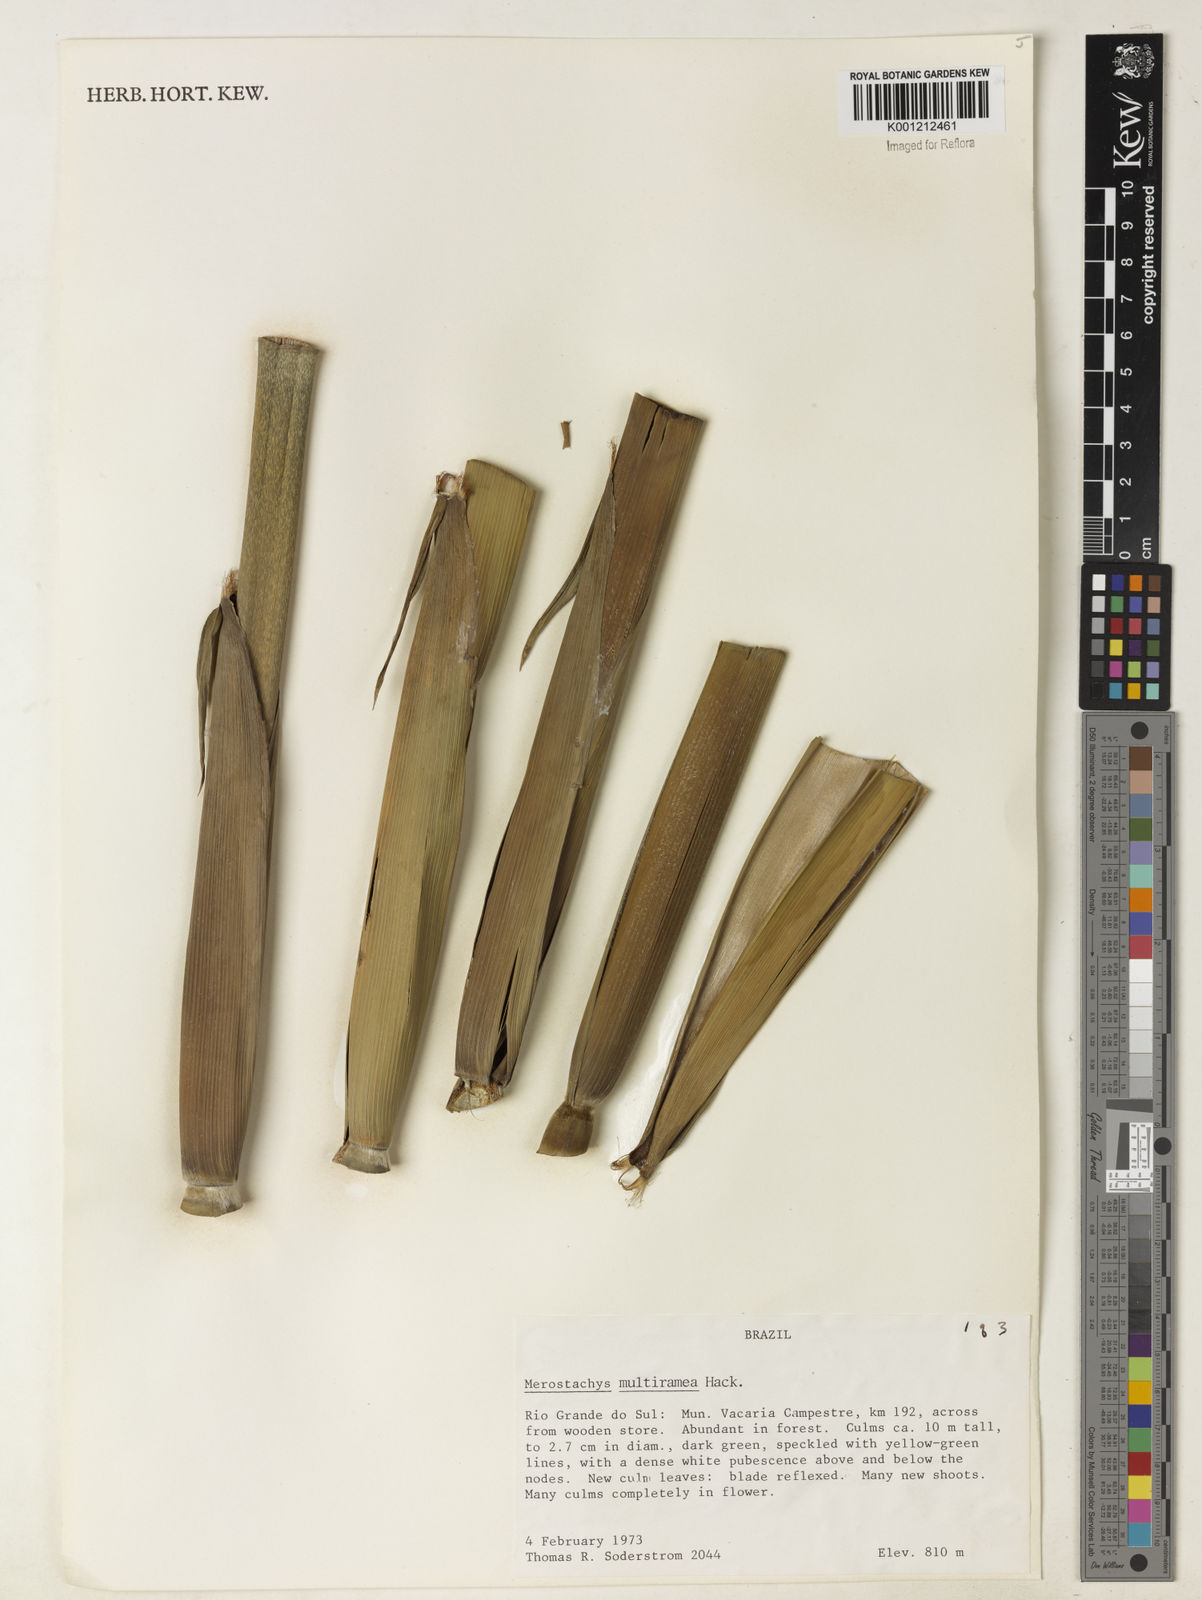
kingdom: Plantae
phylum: Tracheophyta
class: Liliopsida
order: Poales
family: Poaceae
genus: Merostachys
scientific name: Merostachys multiramea
